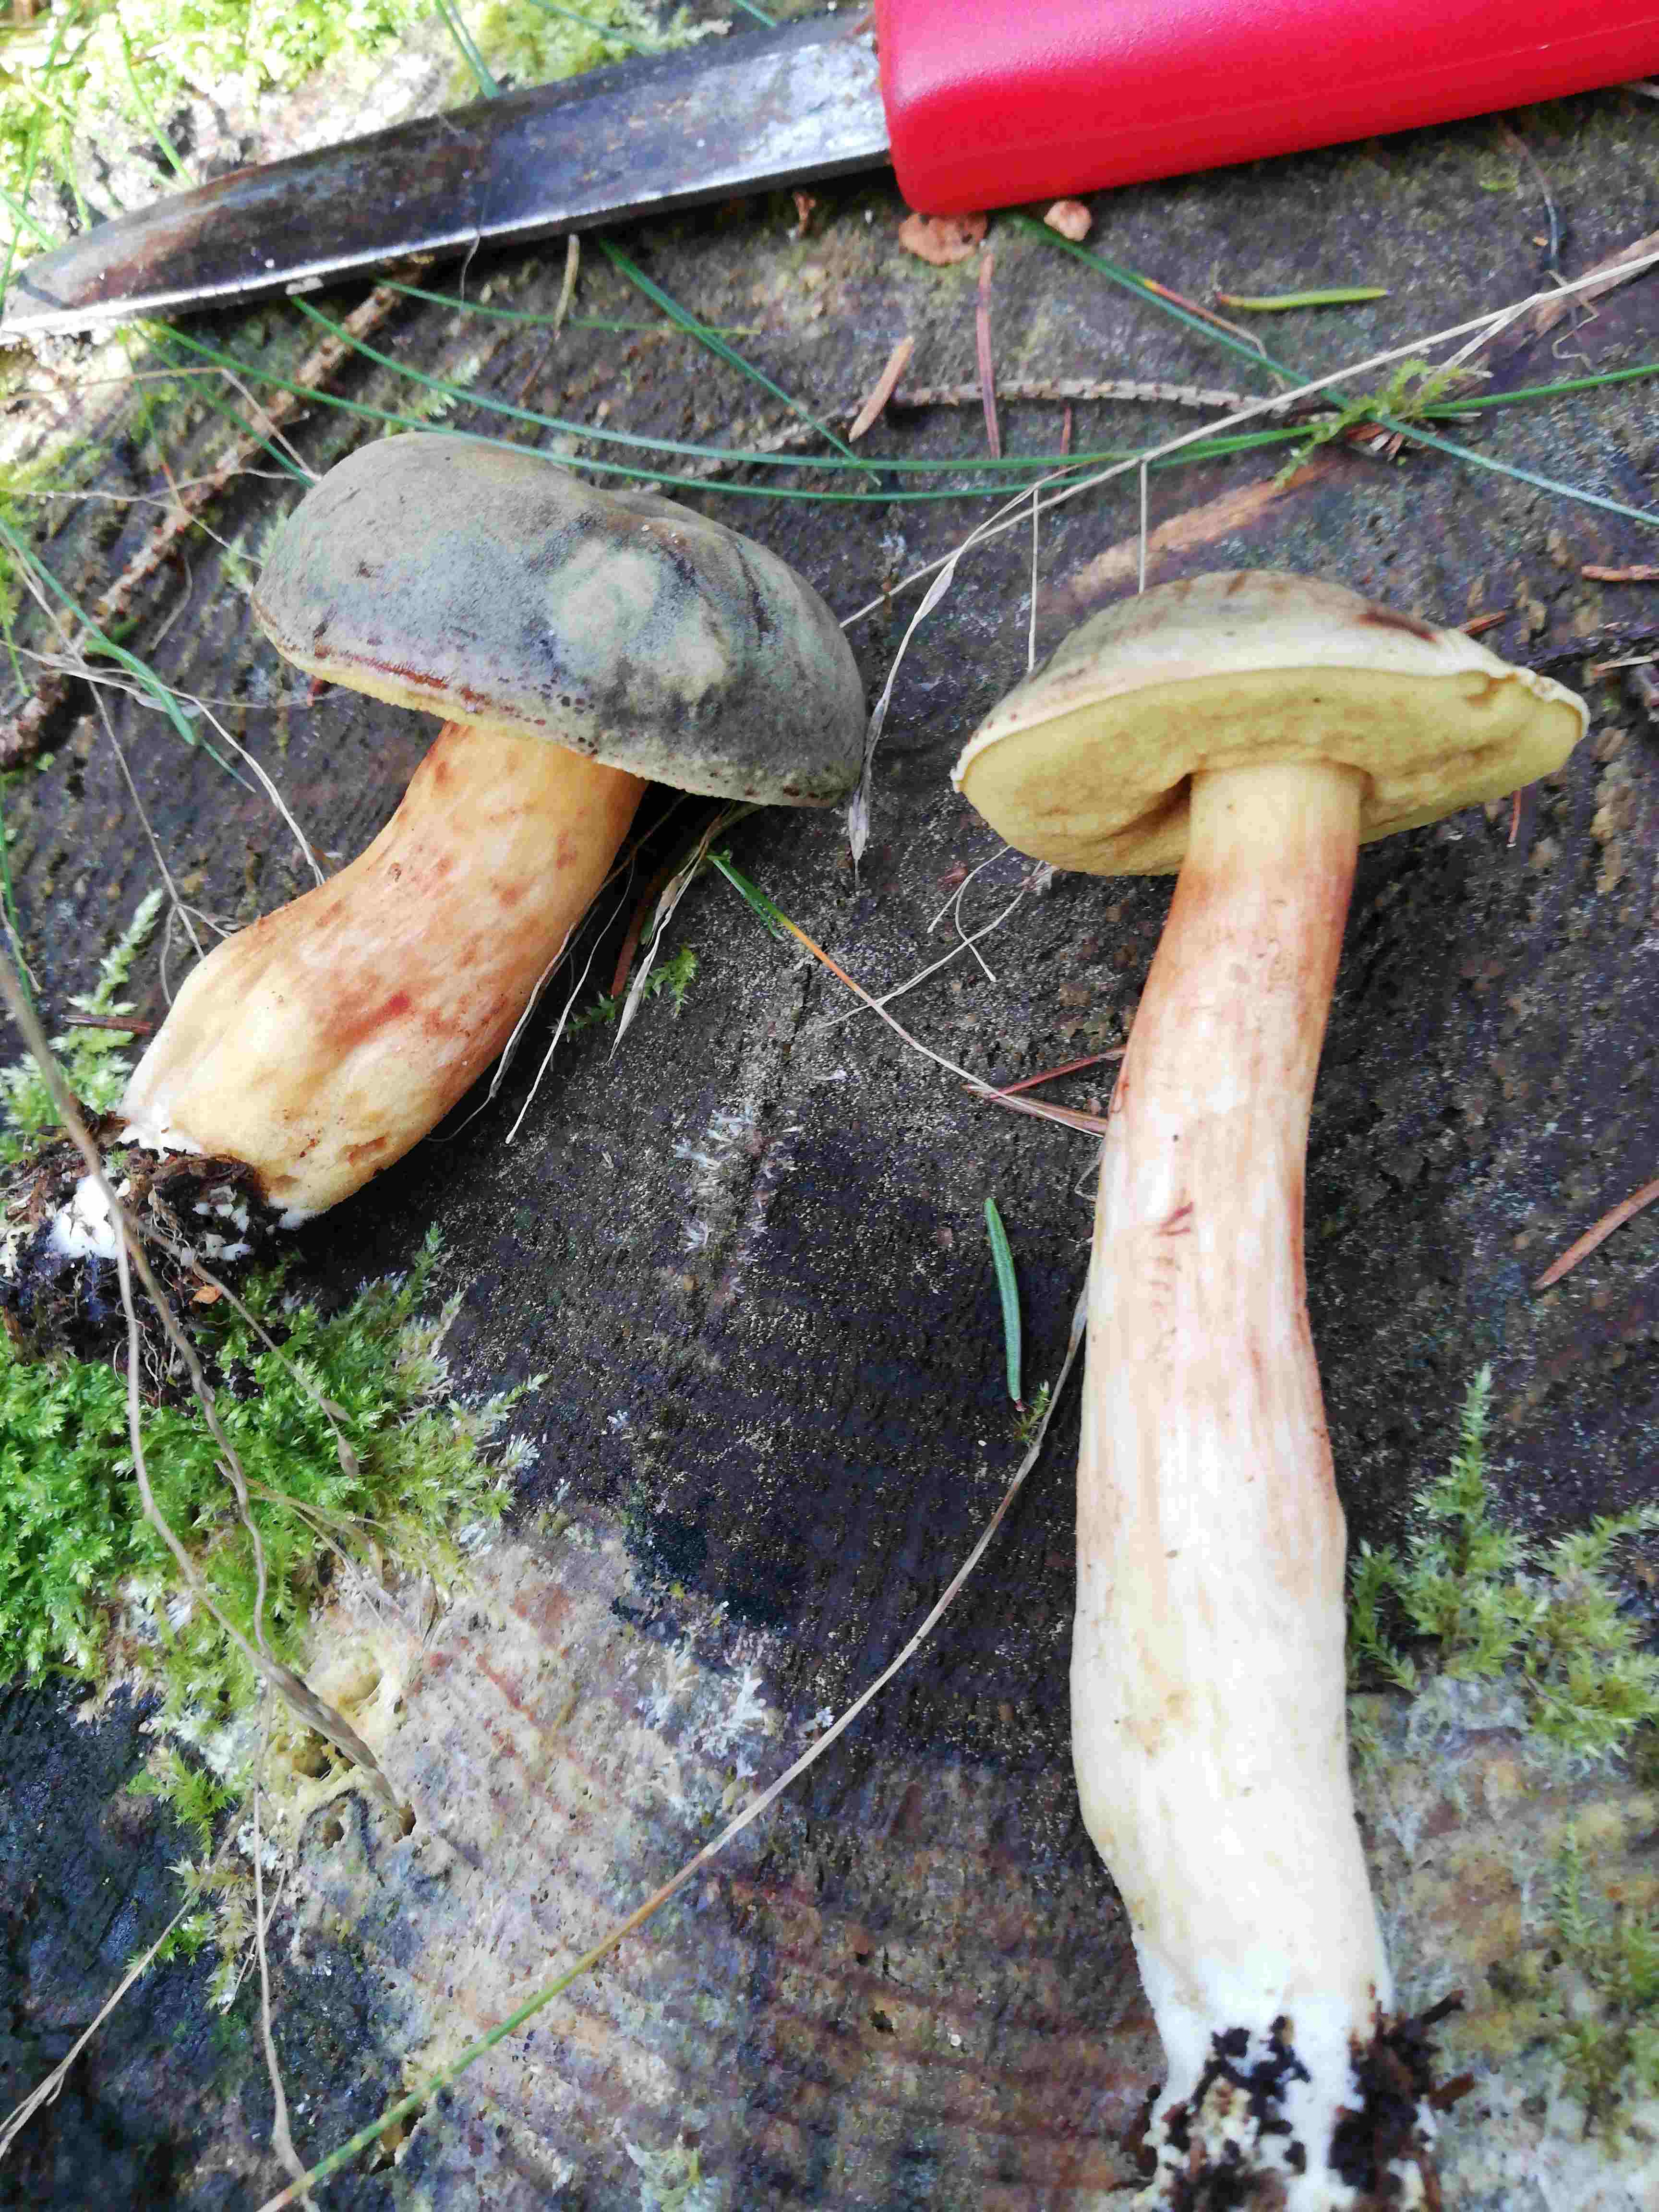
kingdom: Fungi
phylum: Basidiomycota
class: Agaricomycetes
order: Boletales
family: Boletaceae
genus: Xerocomus
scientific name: Xerocomus ferrugineus
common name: vaskeskinds-rørhat
